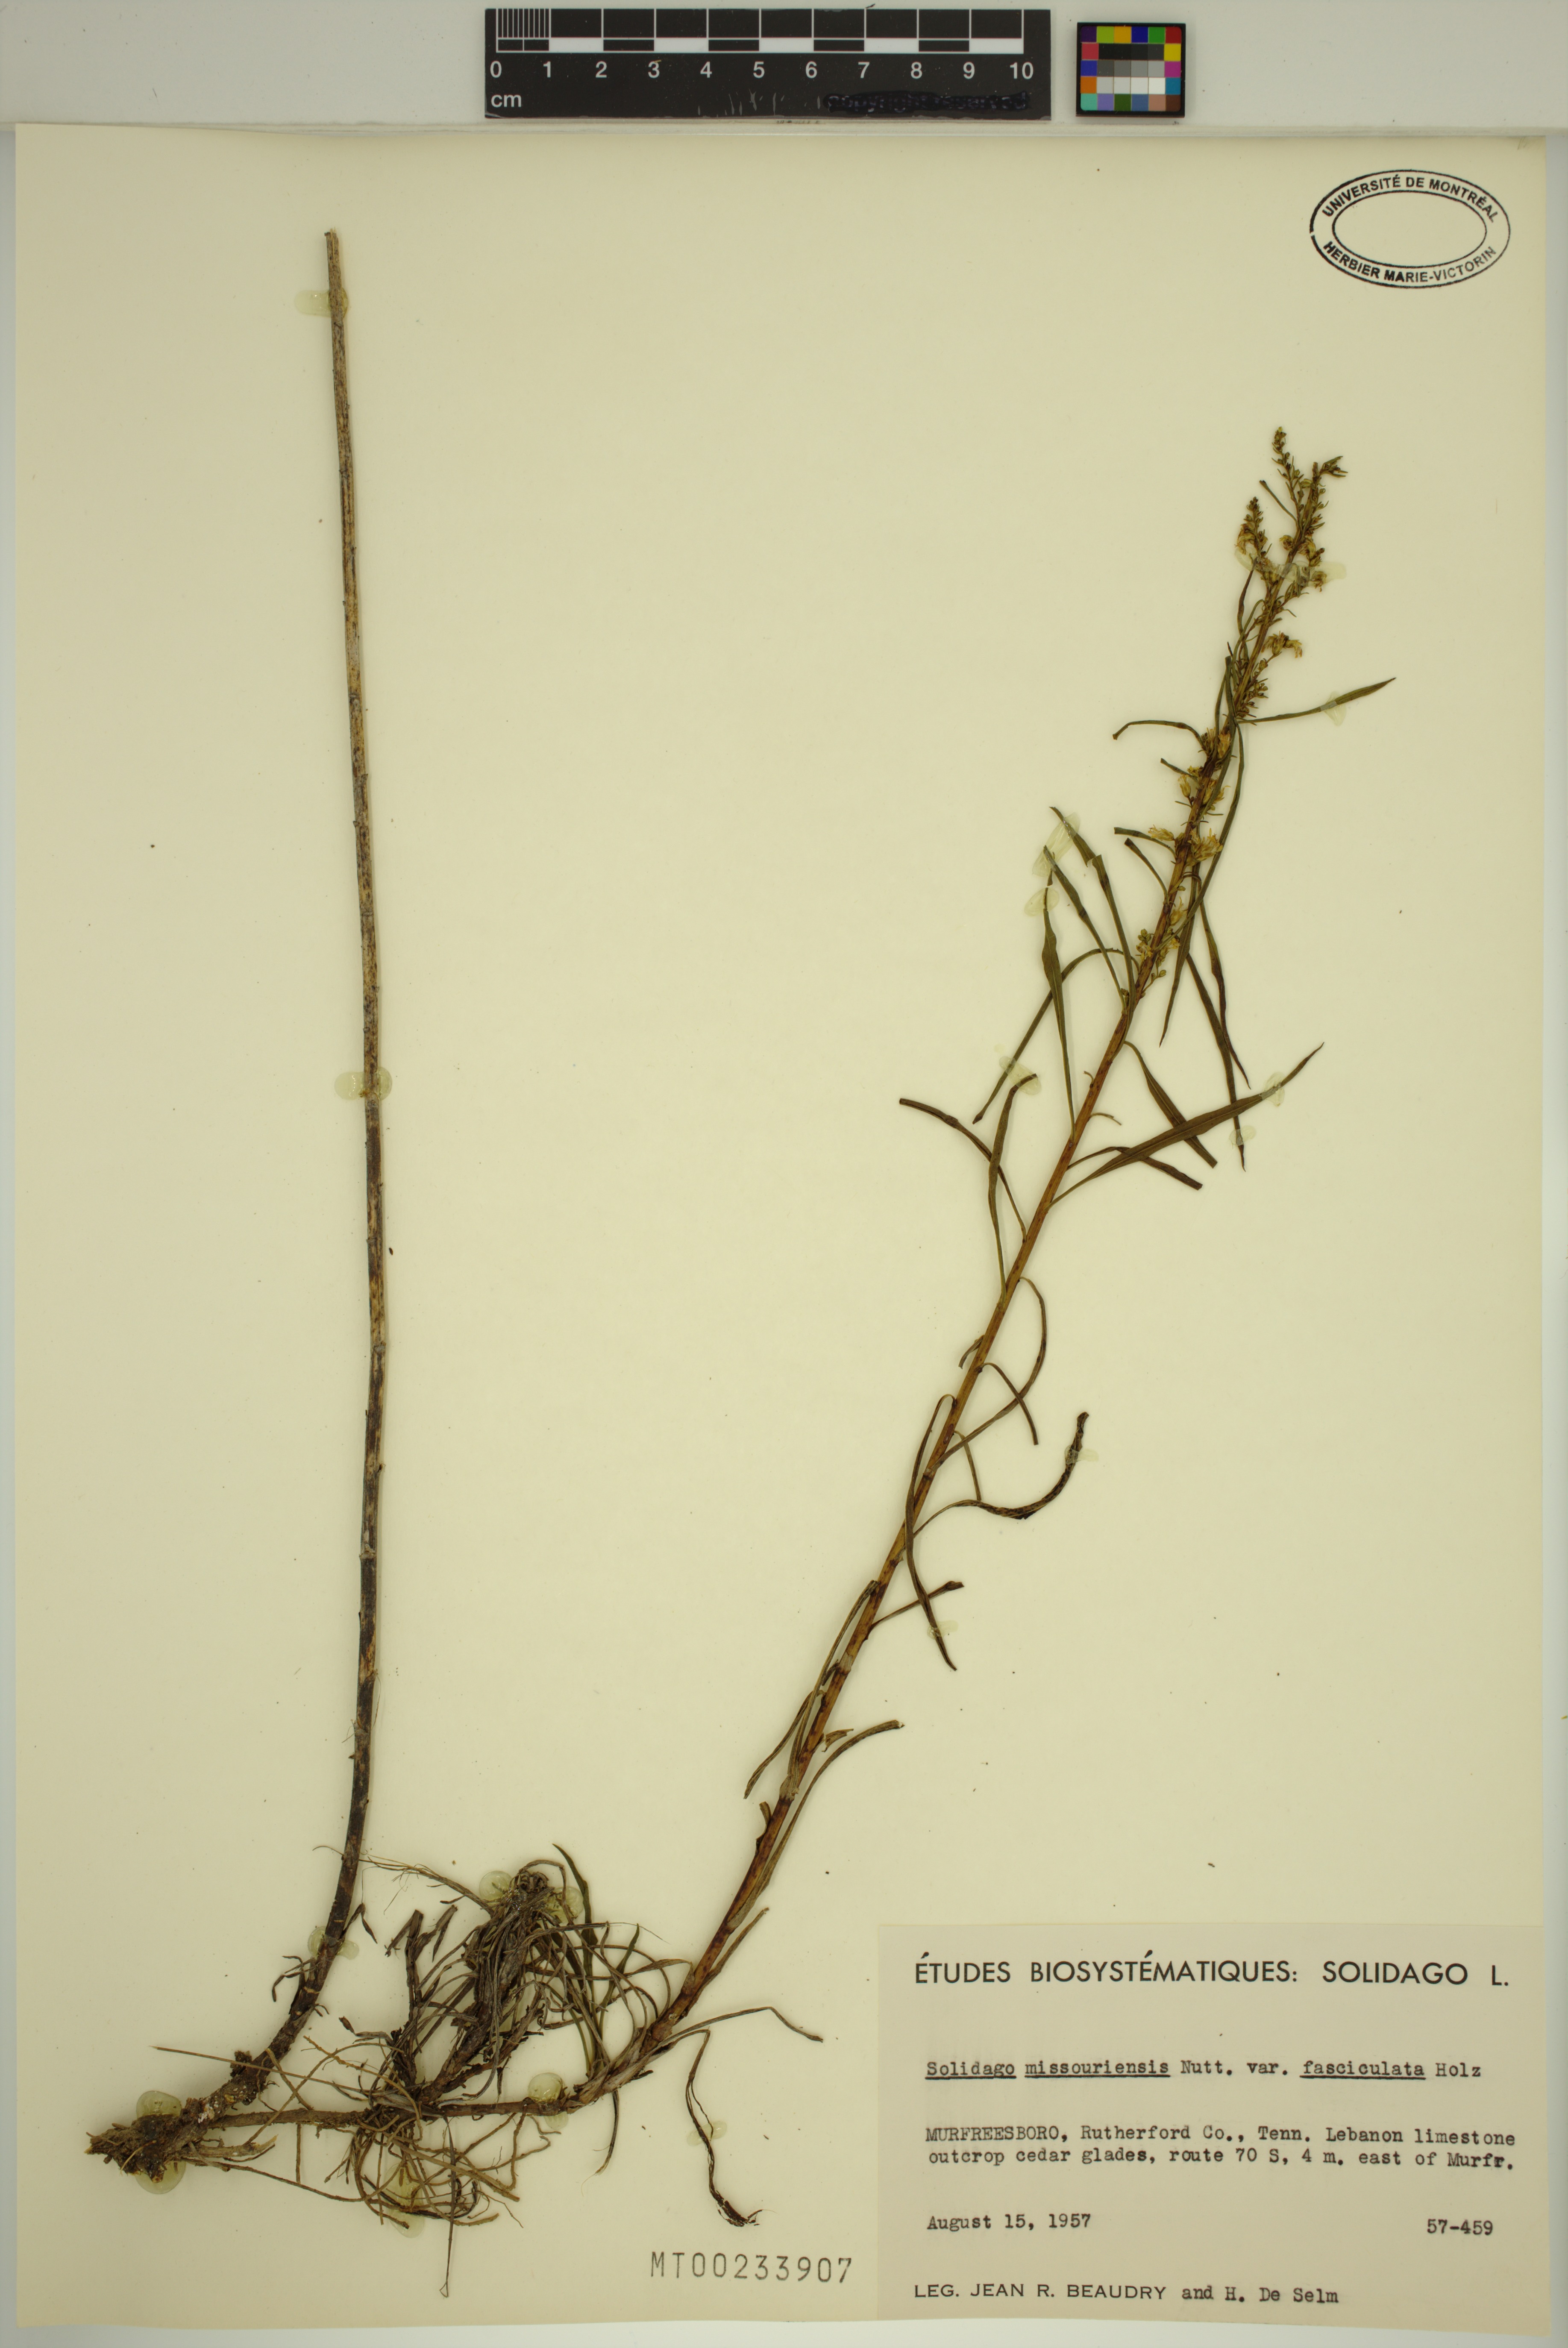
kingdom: Plantae
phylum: Tracheophyta
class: Magnoliopsida
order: Asterales
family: Asteraceae
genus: Solidago
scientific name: Solidago missouriensis
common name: Prairie goldenrod
